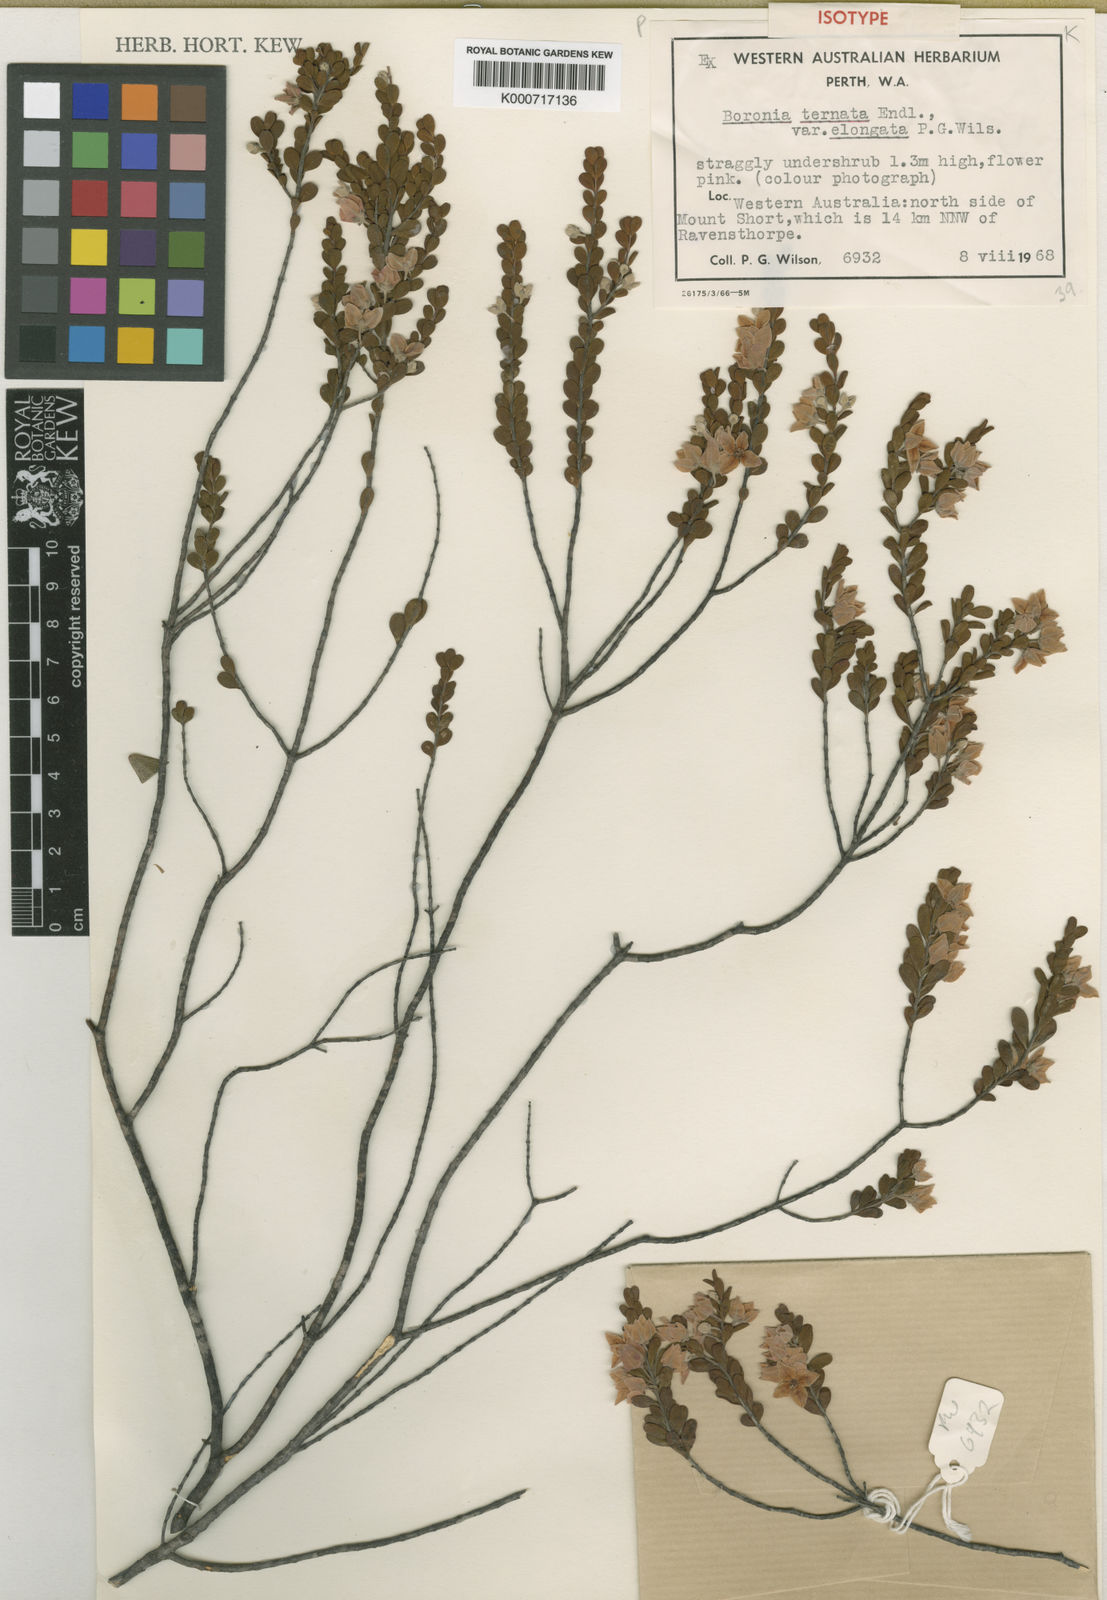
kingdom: Plantae
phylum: Tracheophyta
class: Magnoliopsida
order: Sapindales
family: Rutaceae
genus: Boronia
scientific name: Boronia ternata
